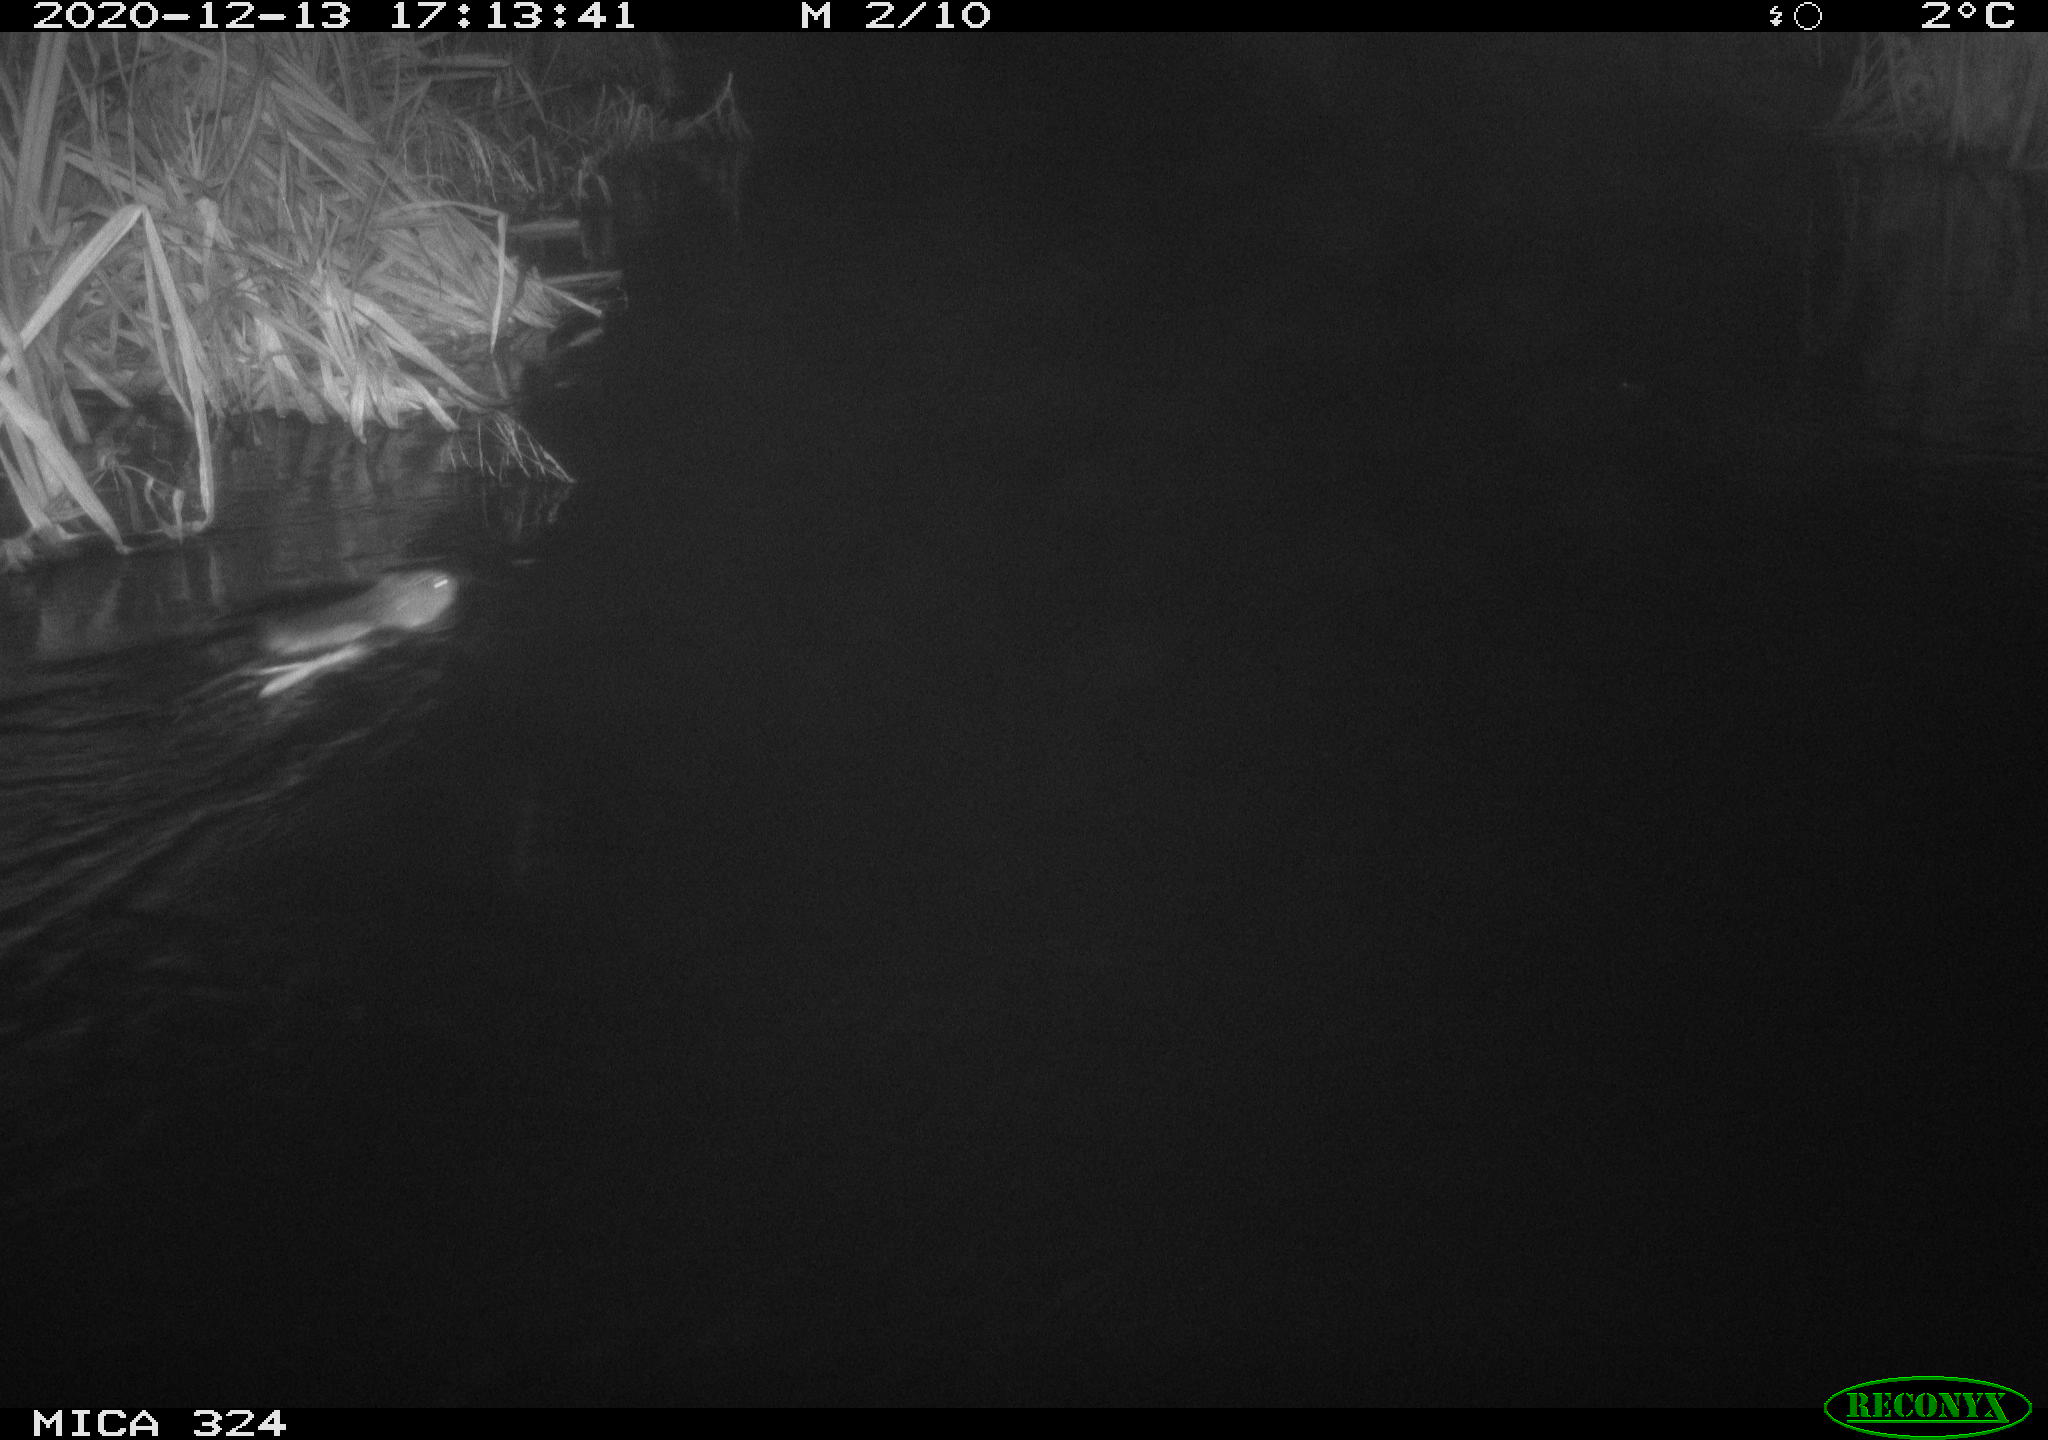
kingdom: Animalia
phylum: Chordata
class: Mammalia
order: Rodentia
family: Cricetidae
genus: Ondatra
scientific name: Ondatra zibethicus
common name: Muskrat
